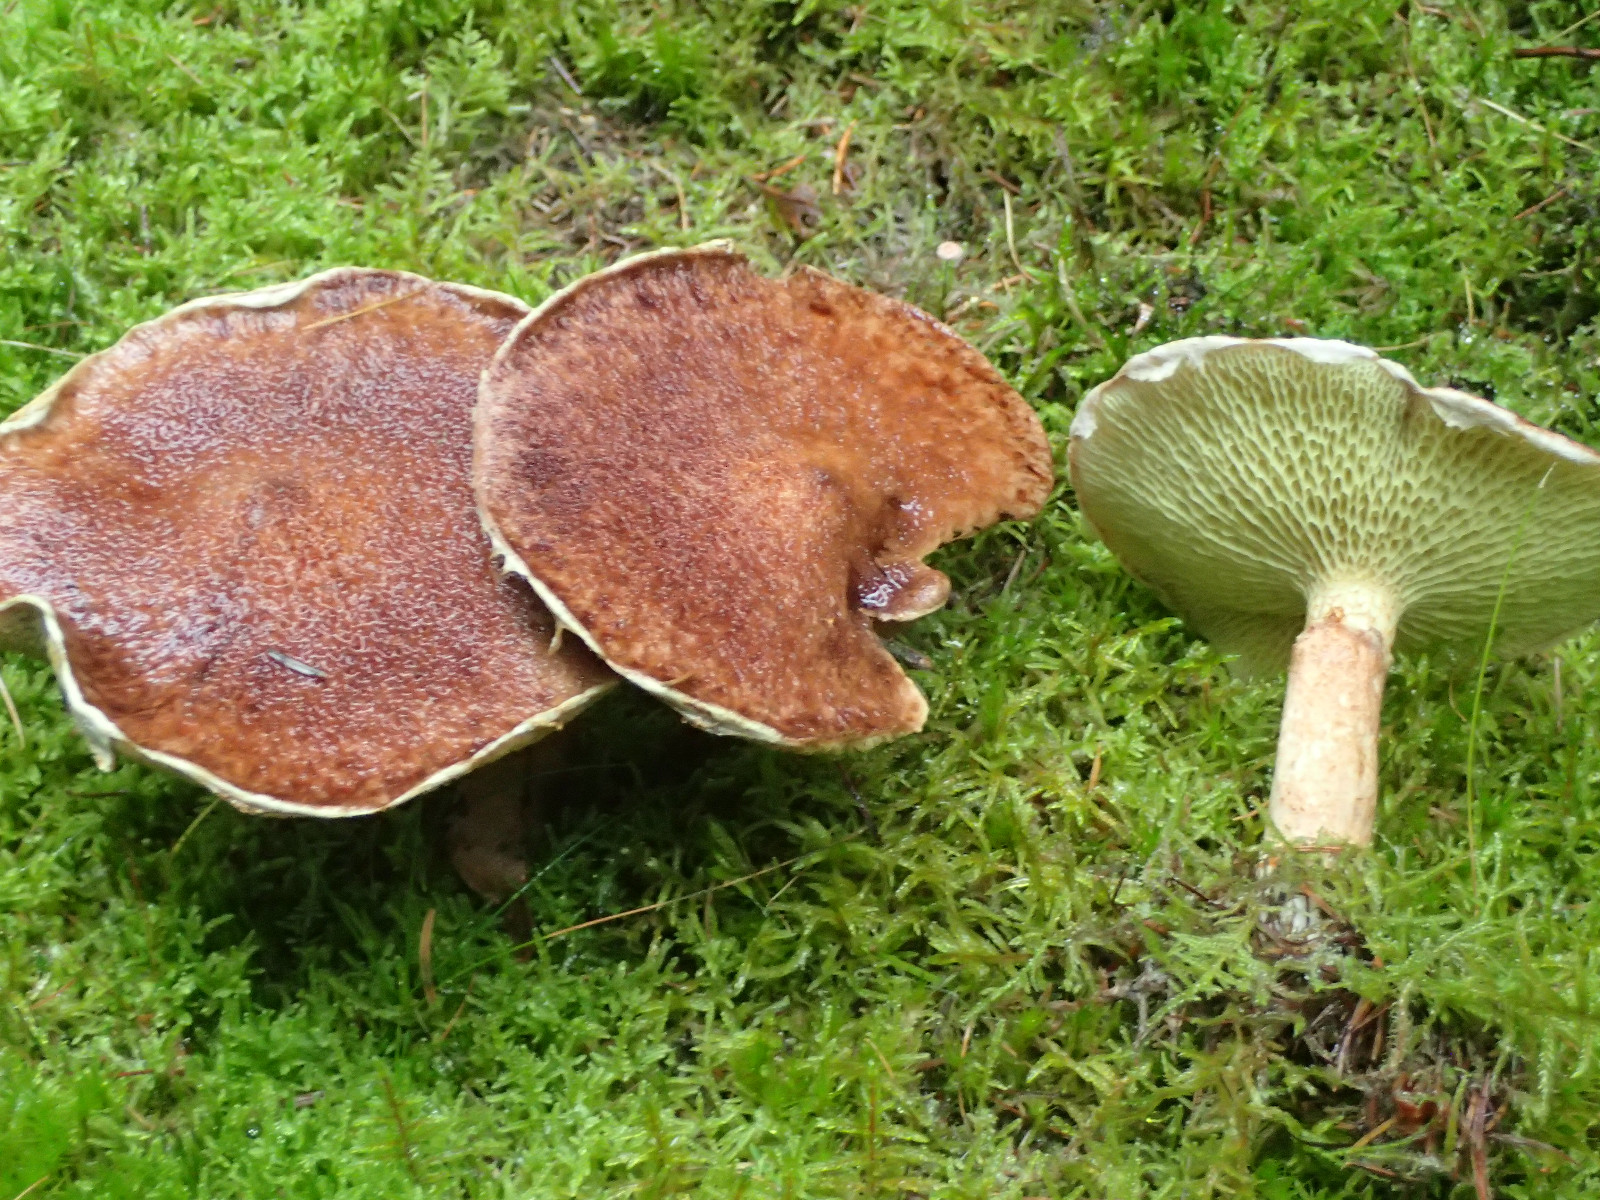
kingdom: Fungi
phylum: Basidiomycota
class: Agaricomycetes
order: Boletales
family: Suillaceae
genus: Suillus
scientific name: Suillus cavipes
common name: hulstokket slimrørhat
